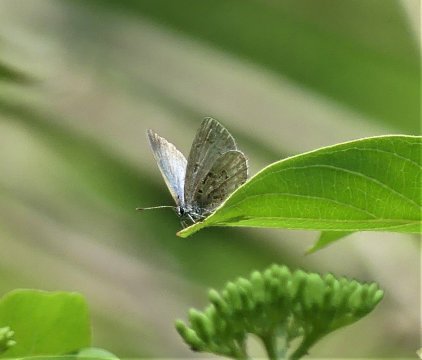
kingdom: Animalia
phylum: Arthropoda
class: Insecta
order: Lepidoptera
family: Lycaenidae
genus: Celastrina
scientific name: Celastrina
